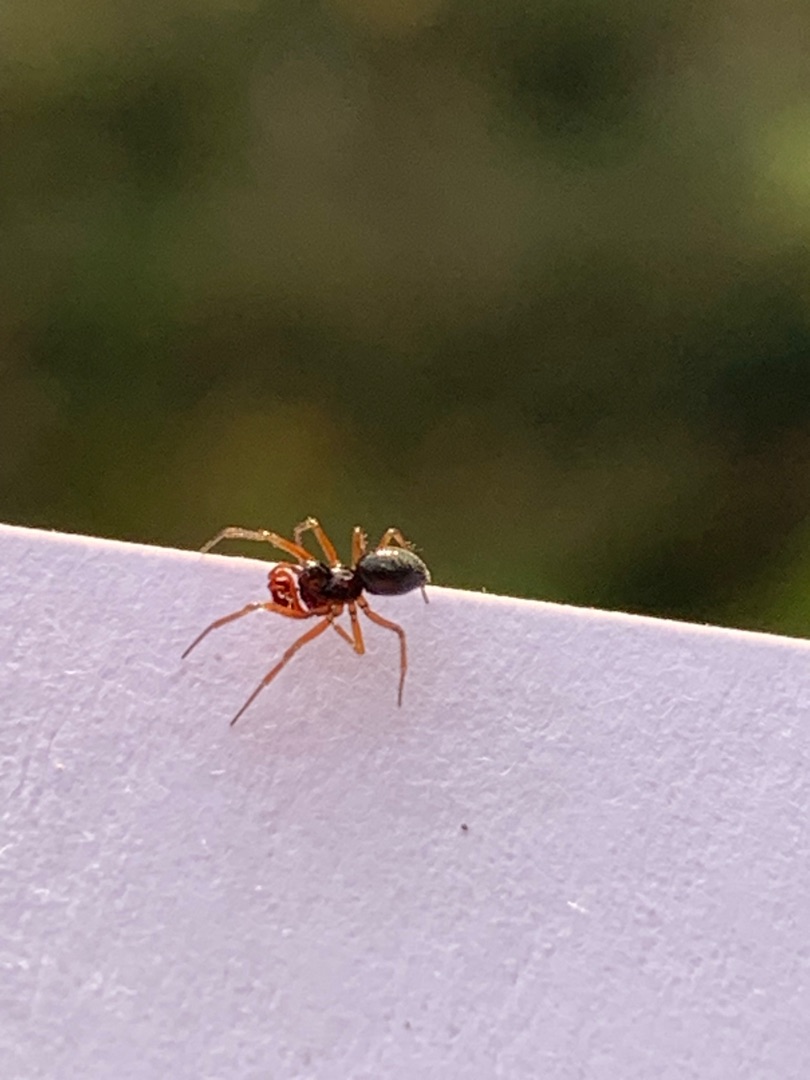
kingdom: Animalia
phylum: Arthropoda
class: Arachnida
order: Araneae
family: Linyphiidae
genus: Erigone
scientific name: Erigone
